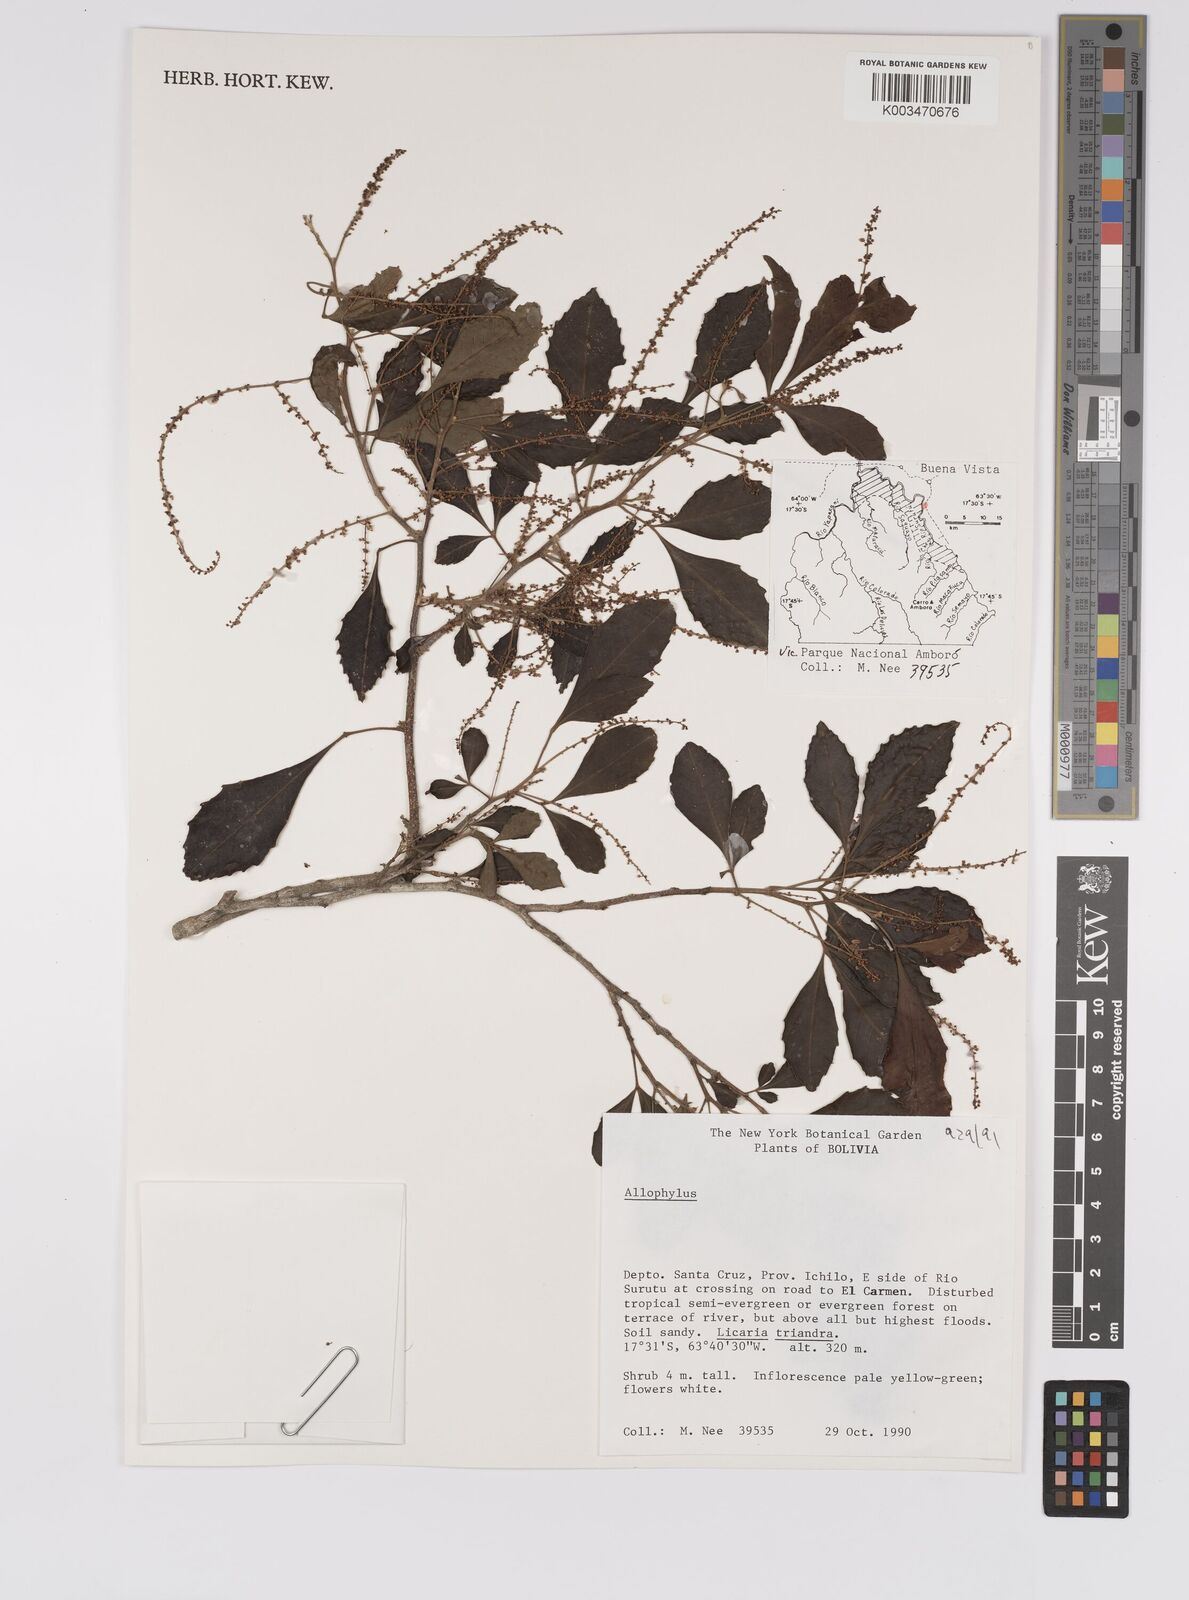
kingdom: Plantae
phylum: Tracheophyta
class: Magnoliopsida
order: Sapindales
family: Sapindaceae
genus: Allophylus
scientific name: Allophylus
